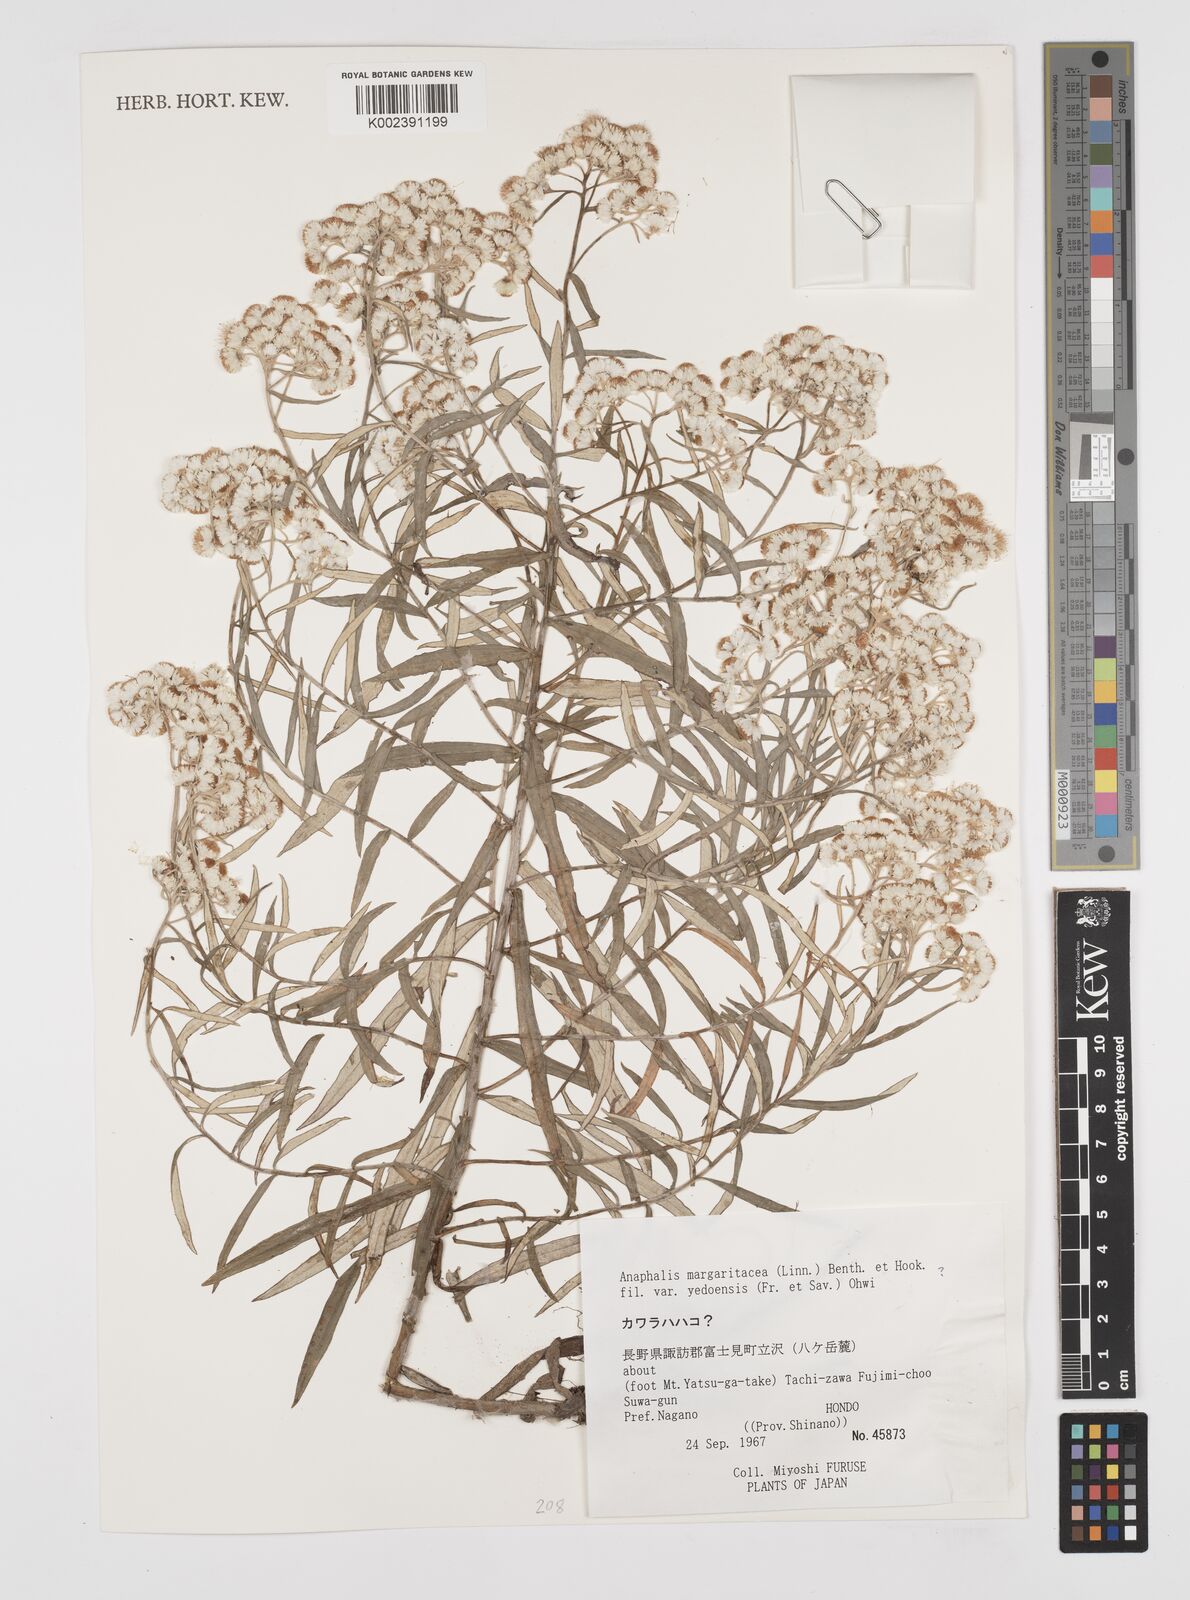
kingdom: Plantae
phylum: Tracheophyta
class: Magnoliopsida
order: Asterales
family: Asteraceae
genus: Anaphalis
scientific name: Anaphalis margaritacea
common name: Pearly everlasting
